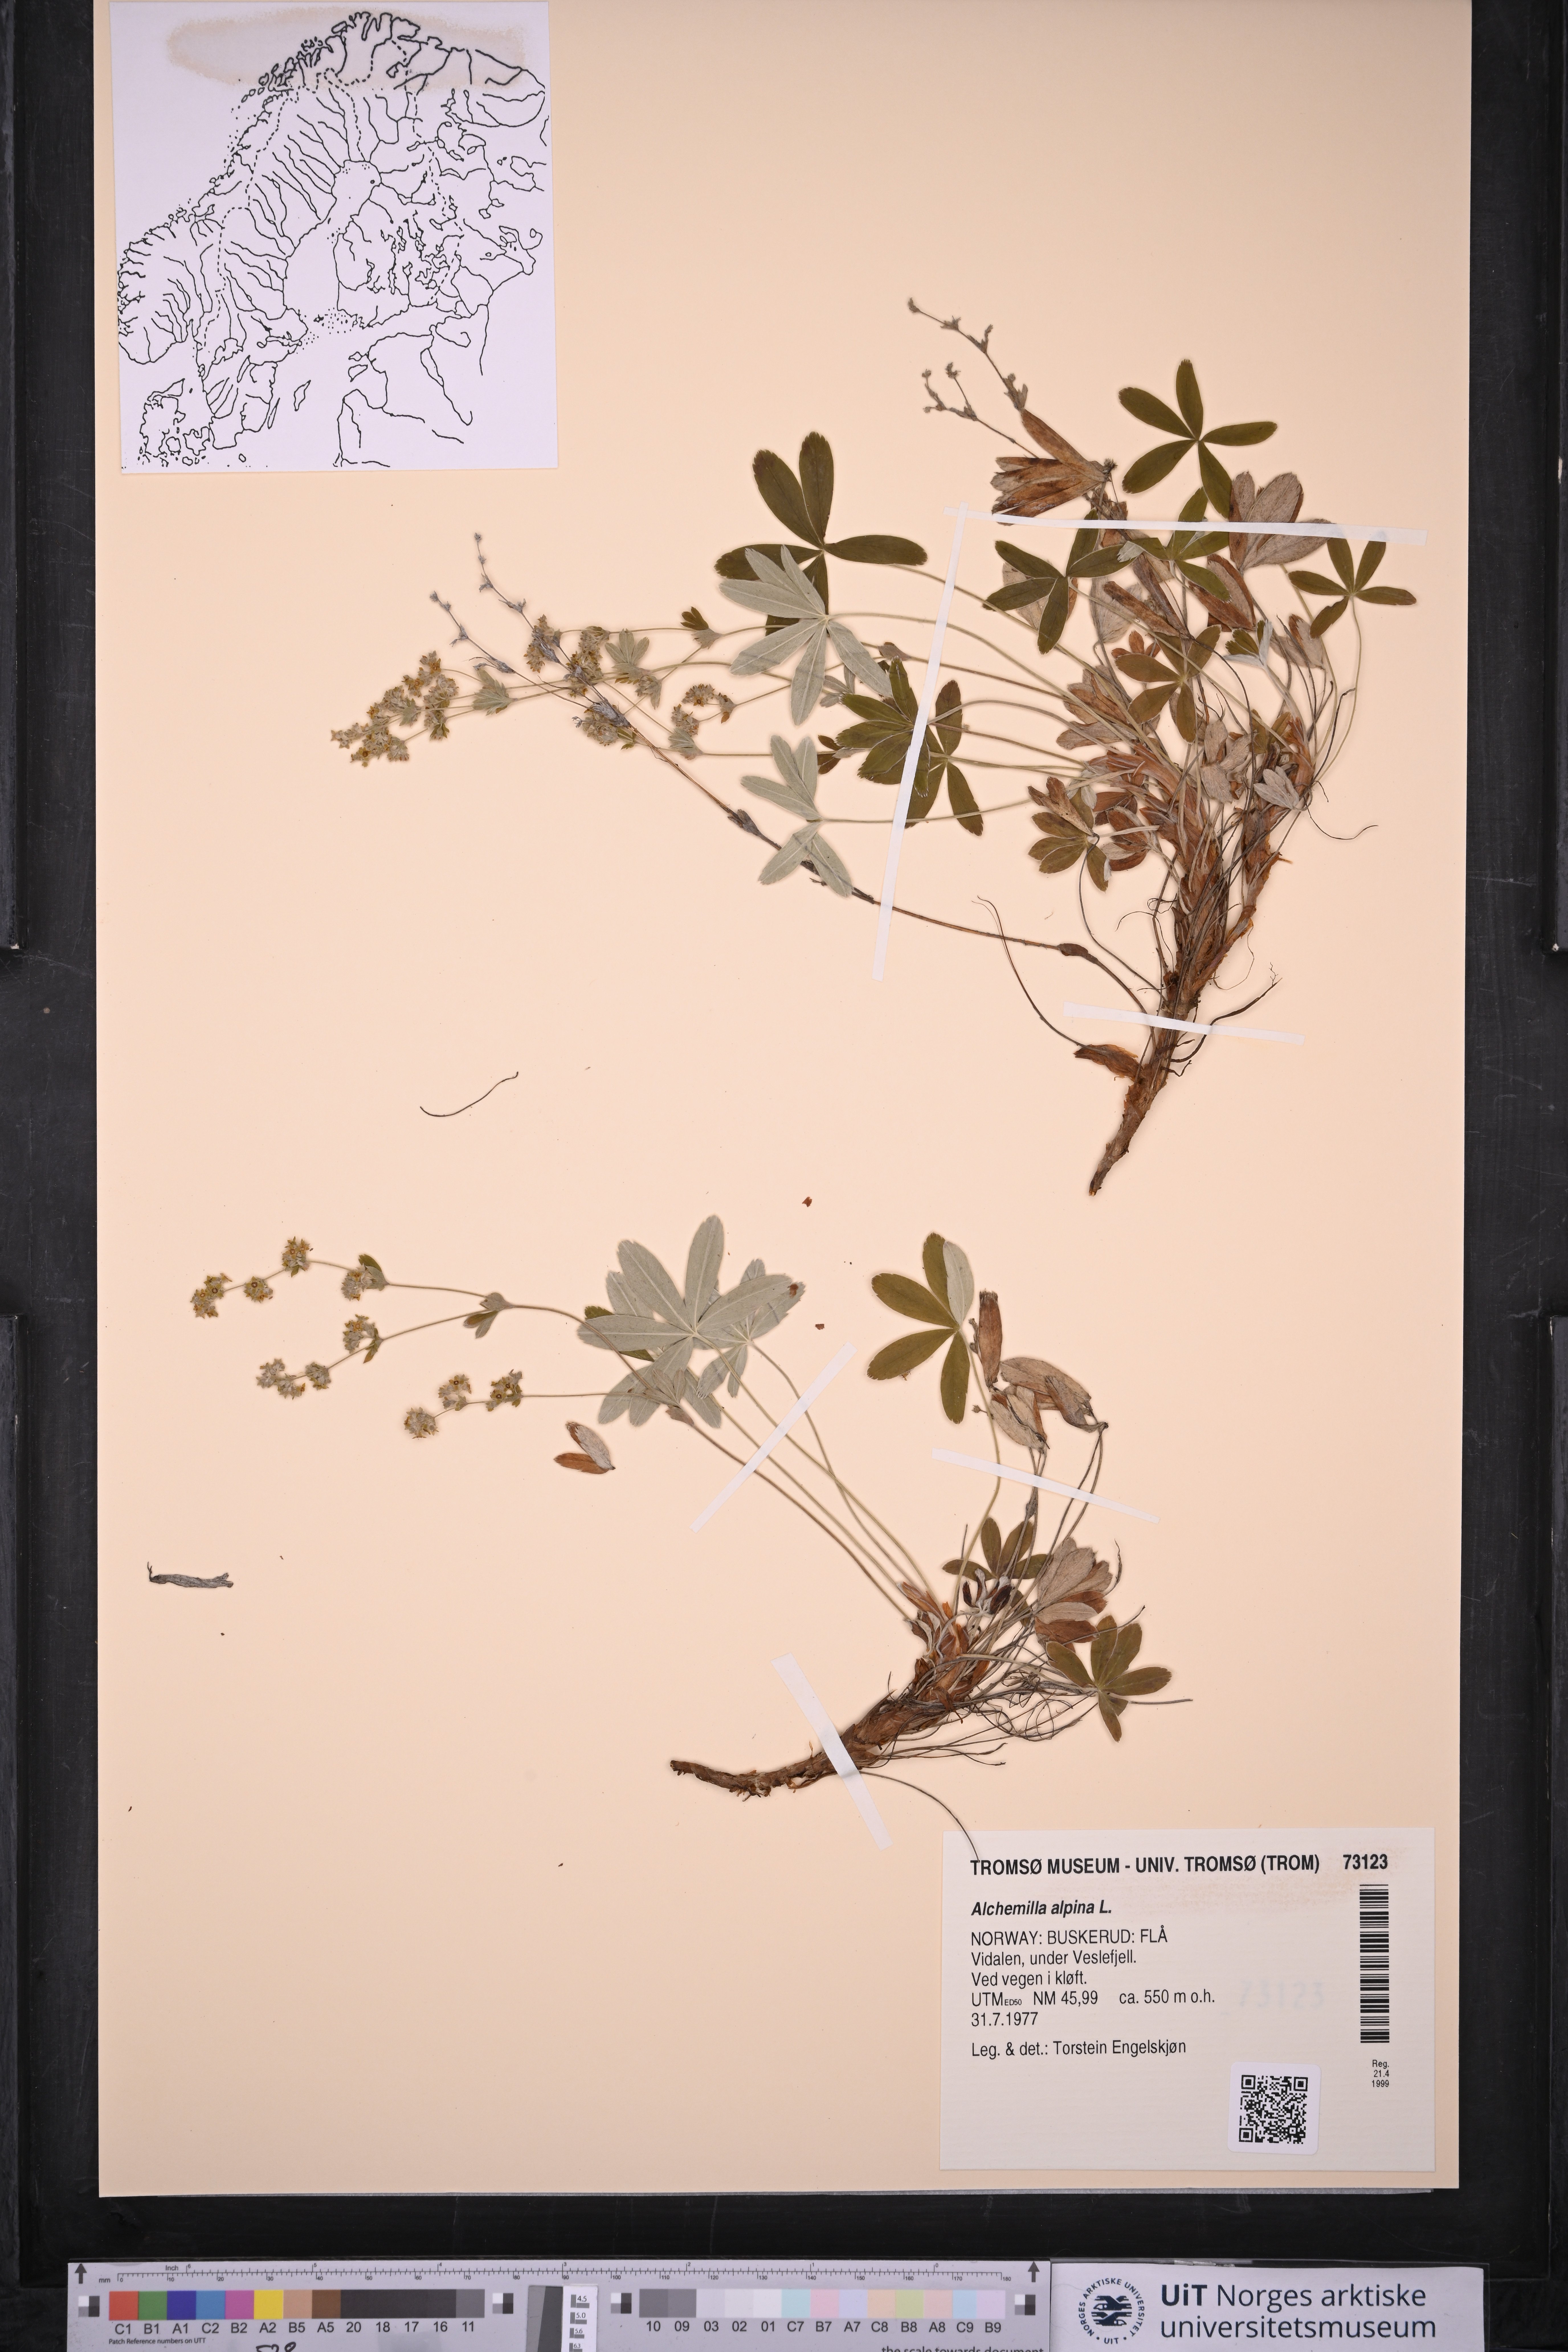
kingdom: Plantae
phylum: Tracheophyta
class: Magnoliopsida
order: Rosales
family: Rosaceae
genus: Alchemilla
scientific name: Alchemilla alpina
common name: Alpine lady's-mantle
